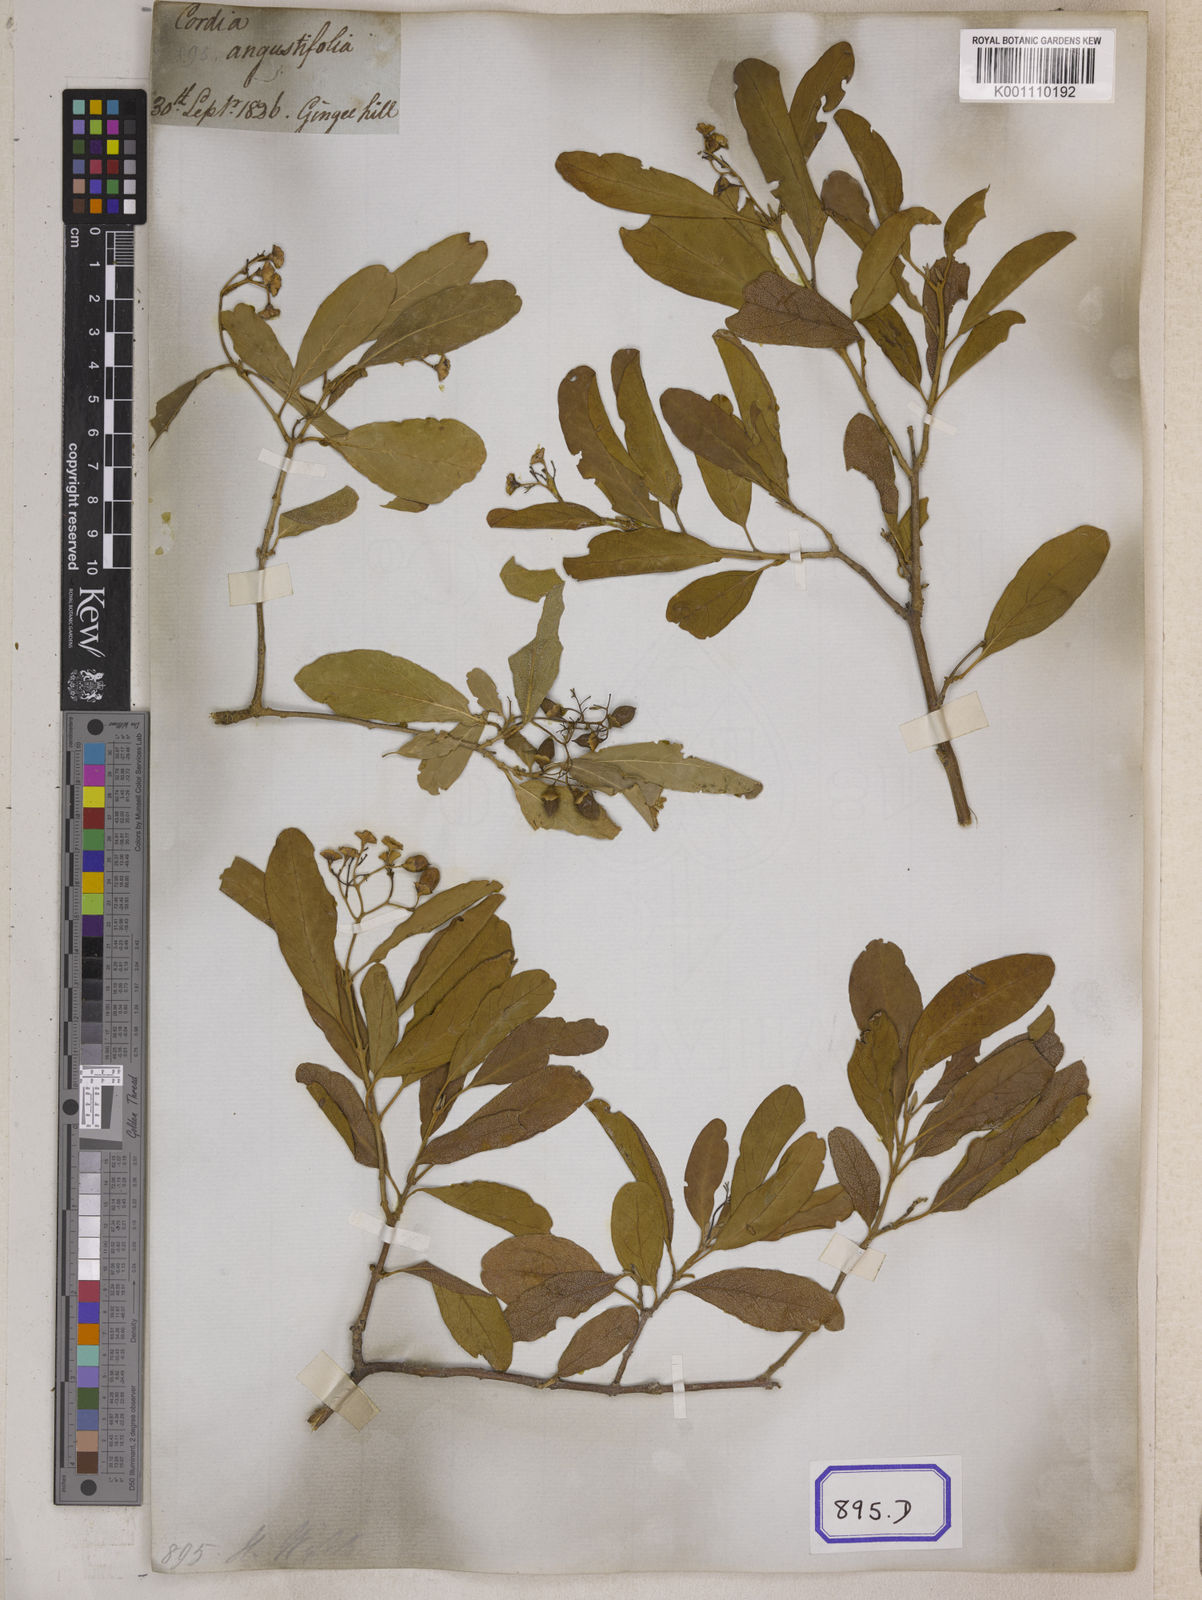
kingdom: Plantae
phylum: Tracheophyta
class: Magnoliopsida
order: Boraginales
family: Cordiaceae
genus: Cordia
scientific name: Cordia sinensis
